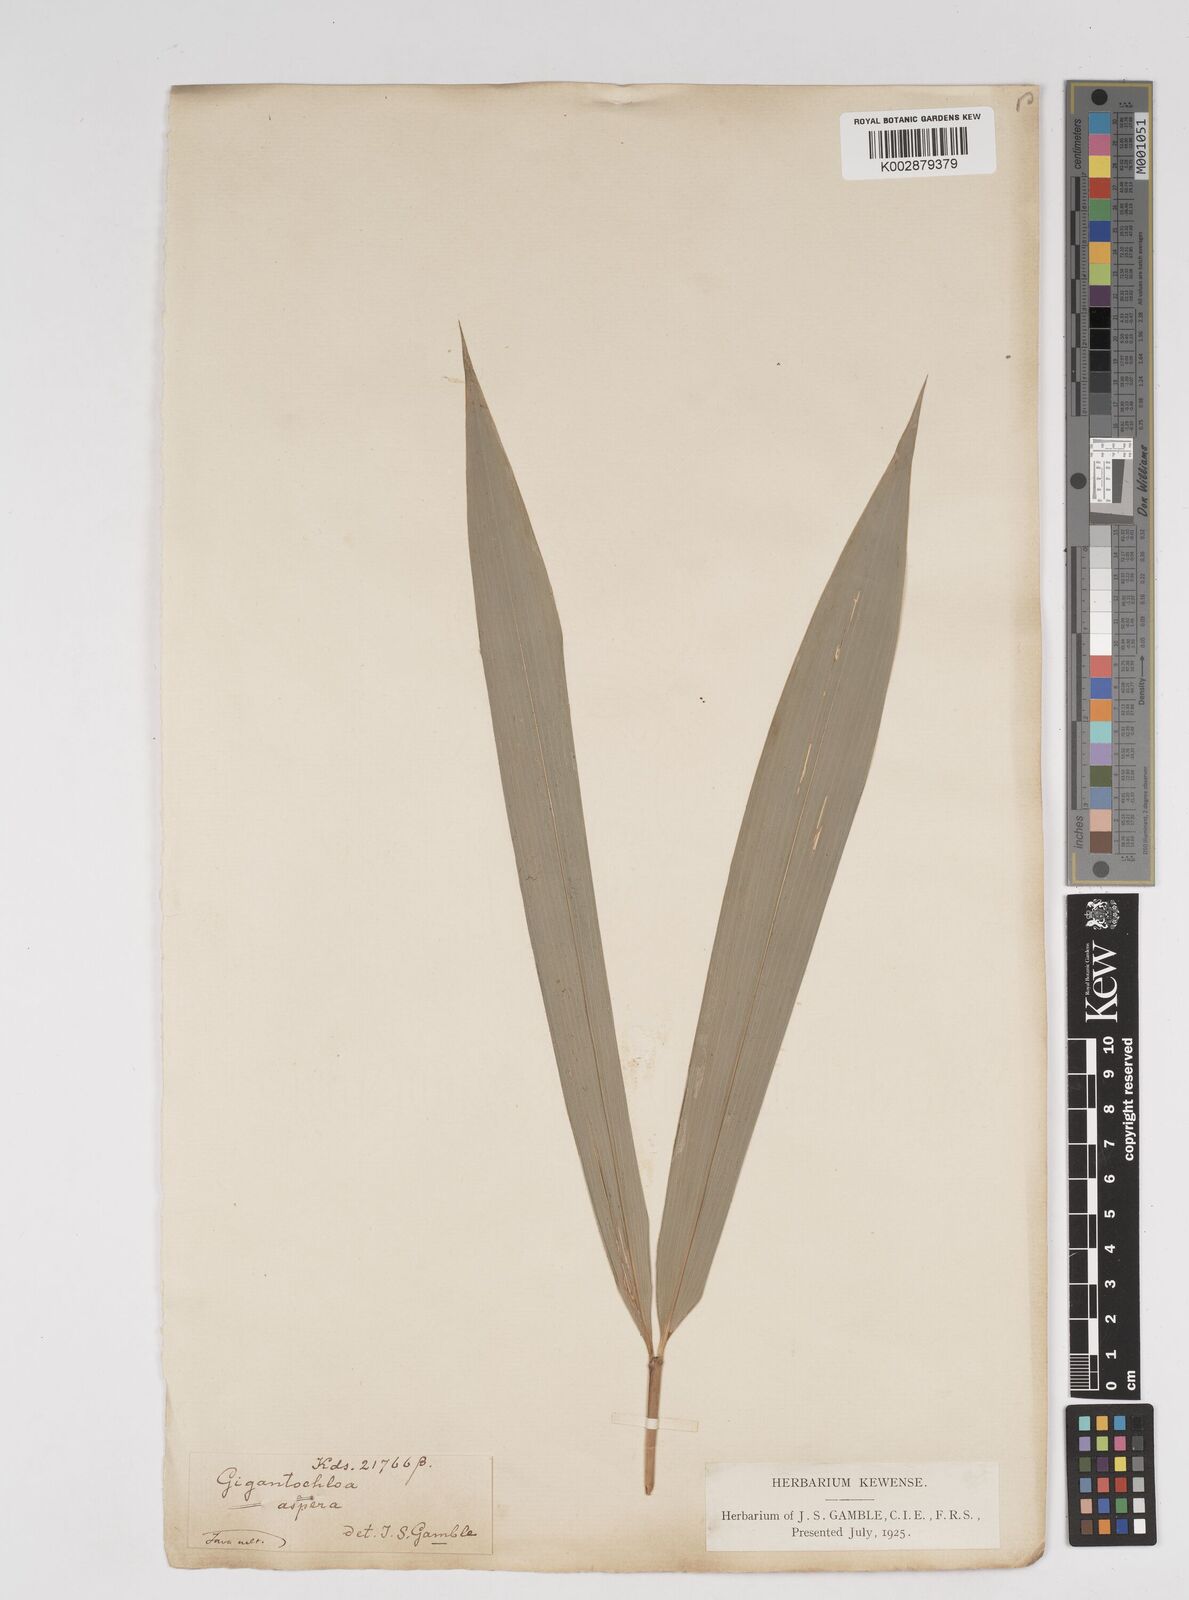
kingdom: Plantae
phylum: Tracheophyta
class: Liliopsida
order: Poales
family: Poaceae
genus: Dendrocalamus
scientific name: Dendrocalamus asper
